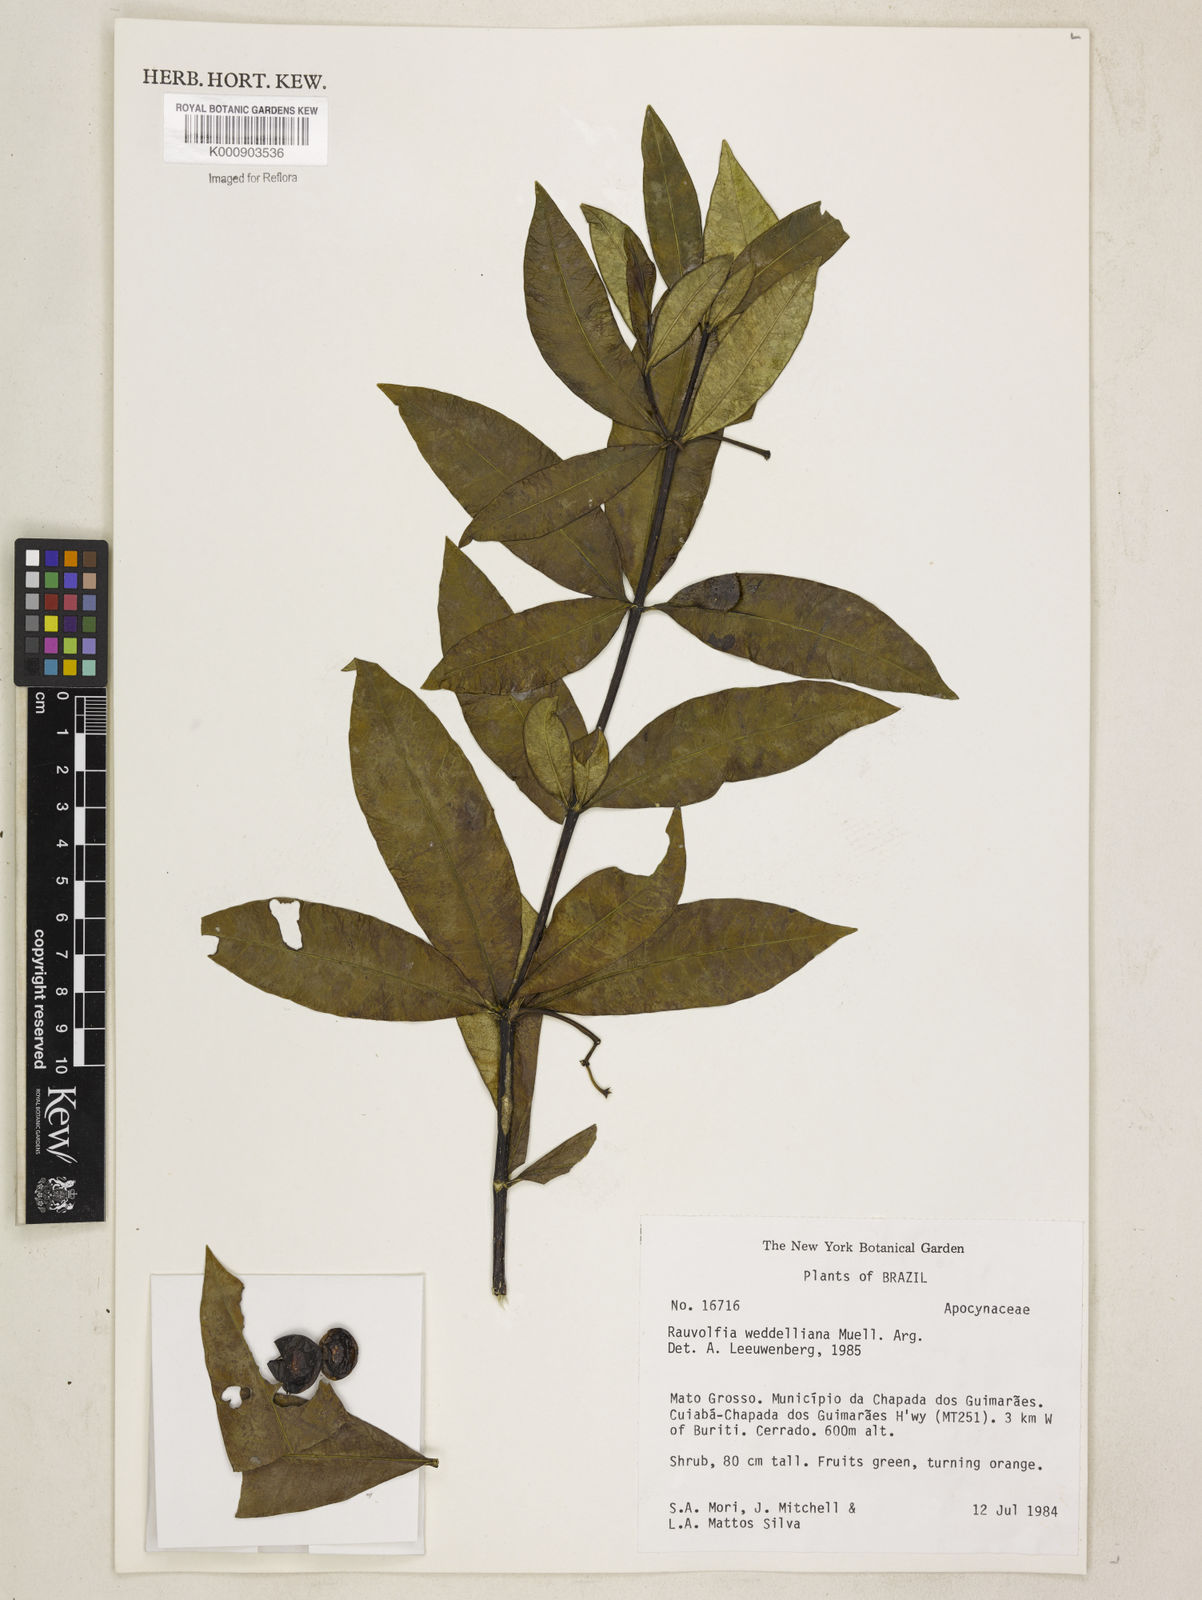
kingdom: Plantae
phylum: Tracheophyta
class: Magnoliopsida
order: Gentianales
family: Apocynaceae
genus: Rauvolfia
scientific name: Rauvolfia
